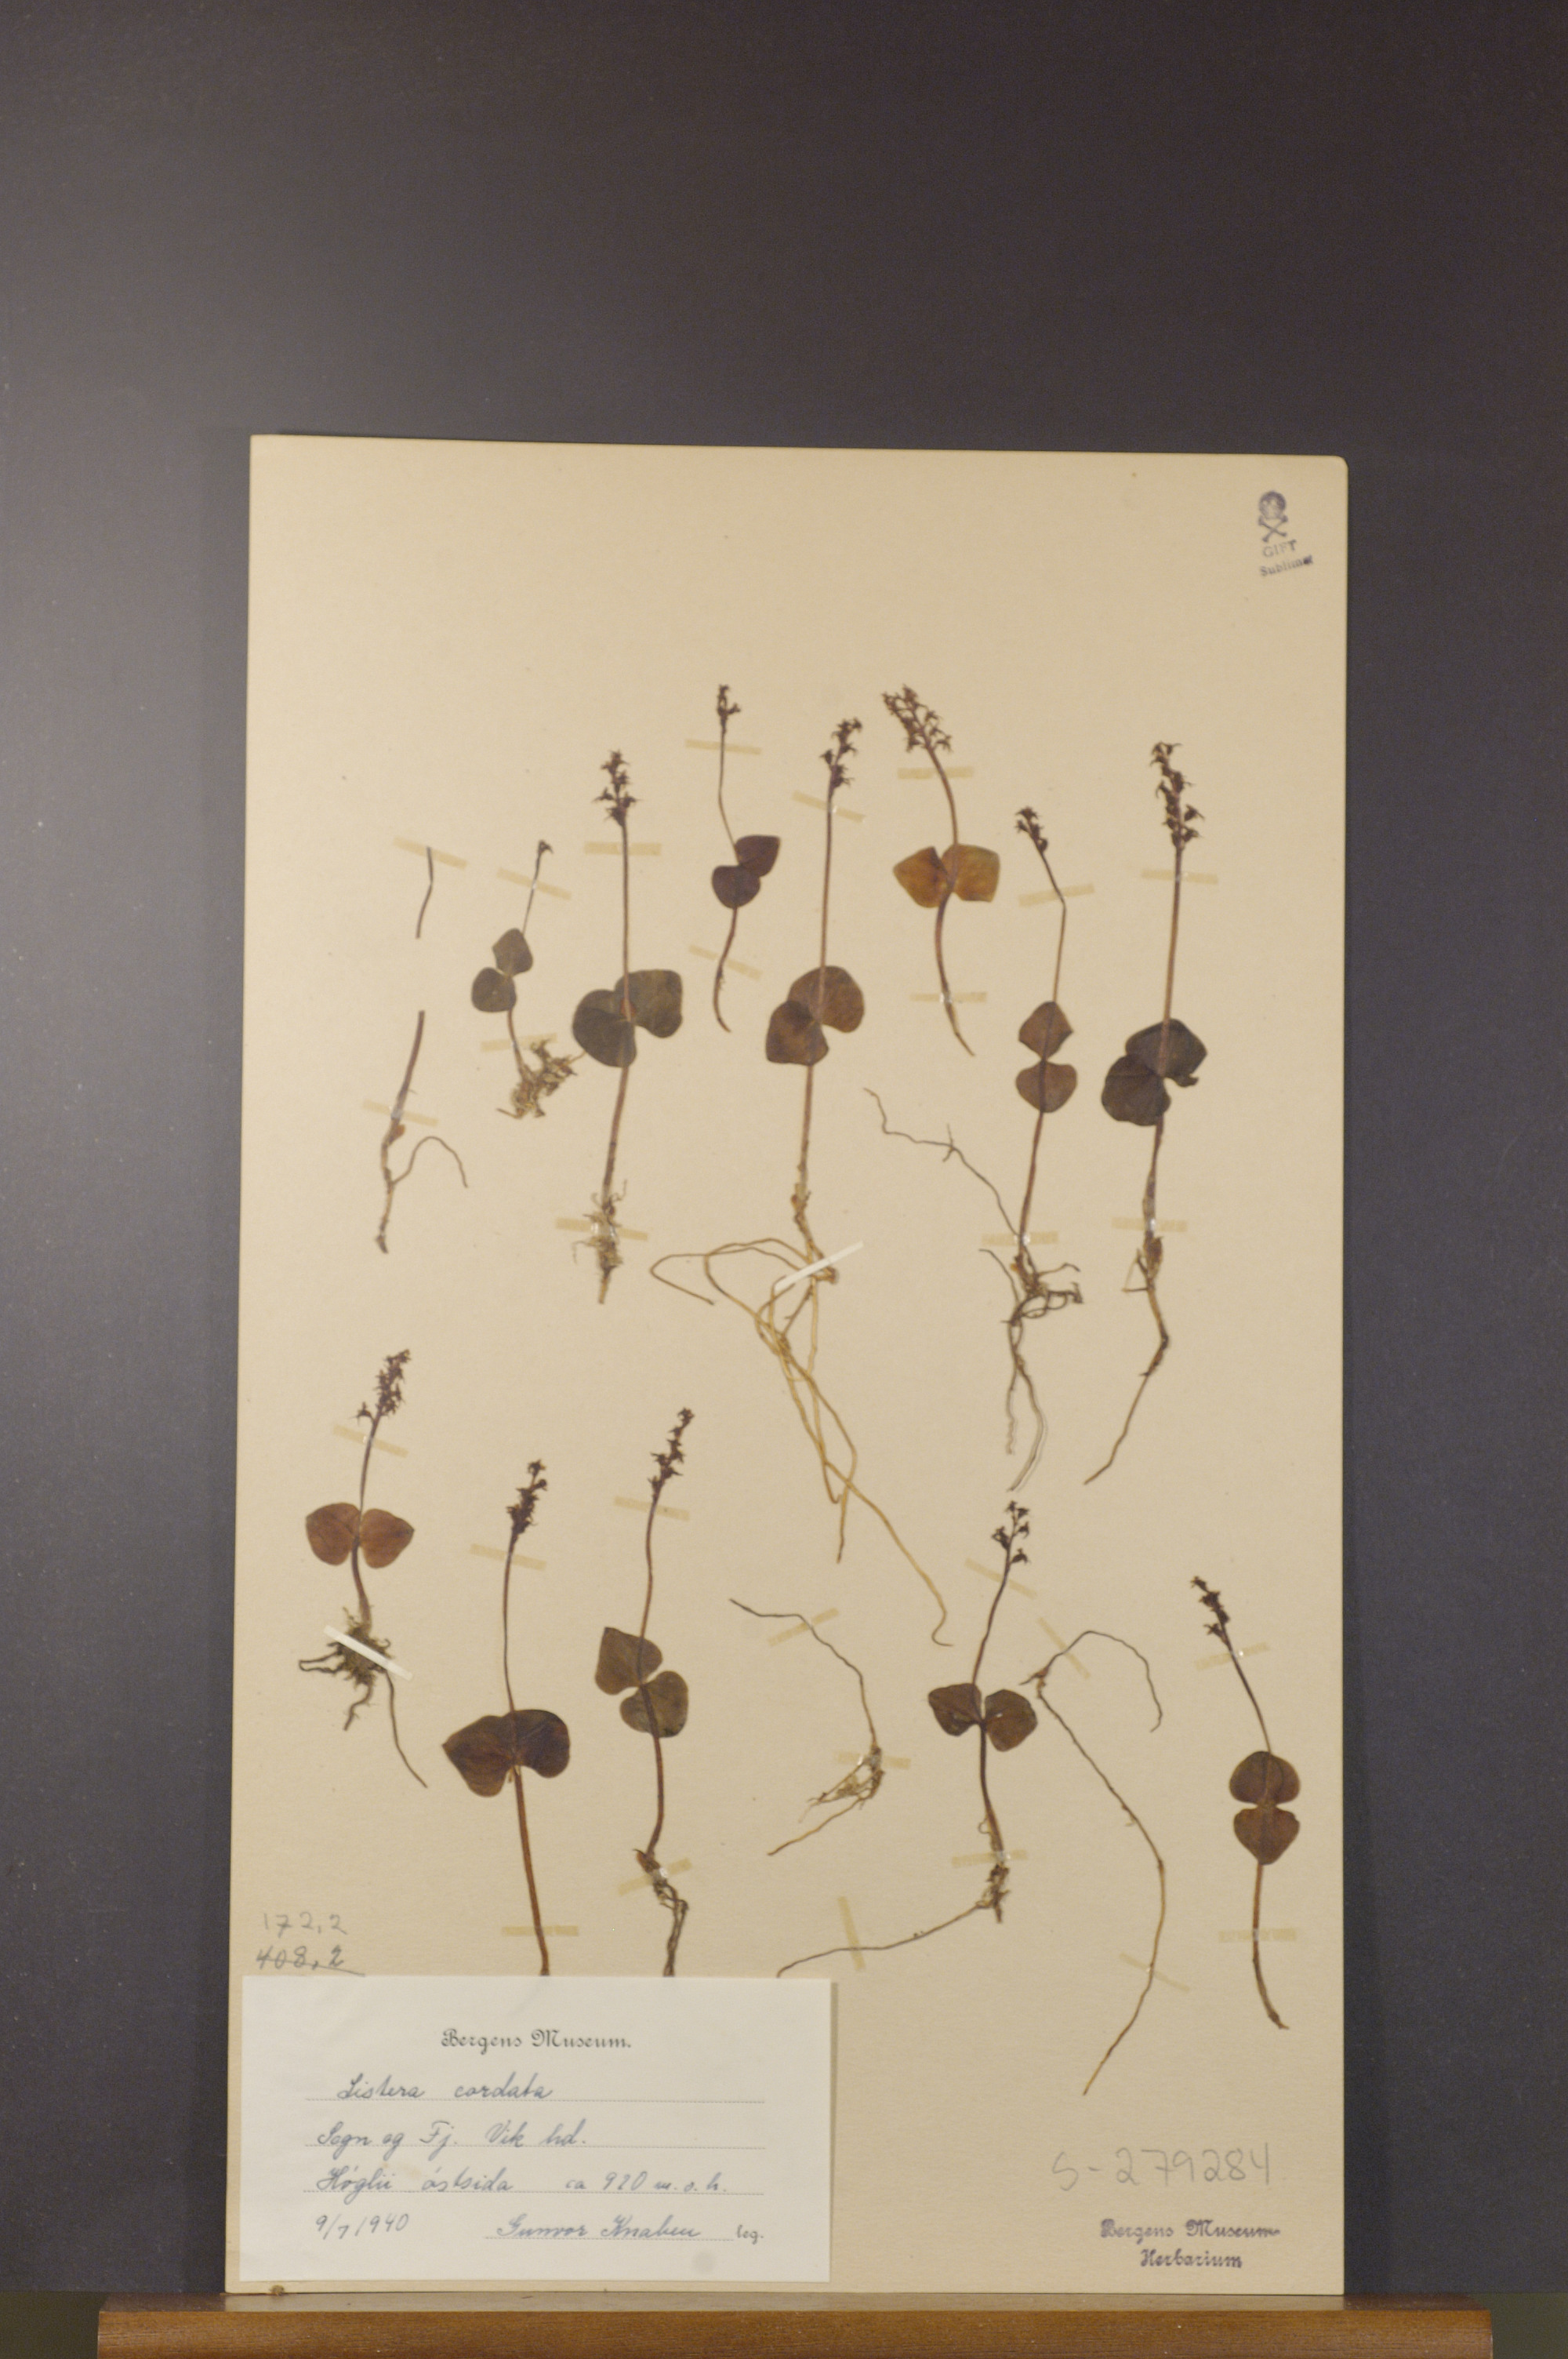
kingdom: Plantae
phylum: Tracheophyta
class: Liliopsida
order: Asparagales
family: Orchidaceae
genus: Neottia
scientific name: Neottia cordata
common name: Lesser twayblade
